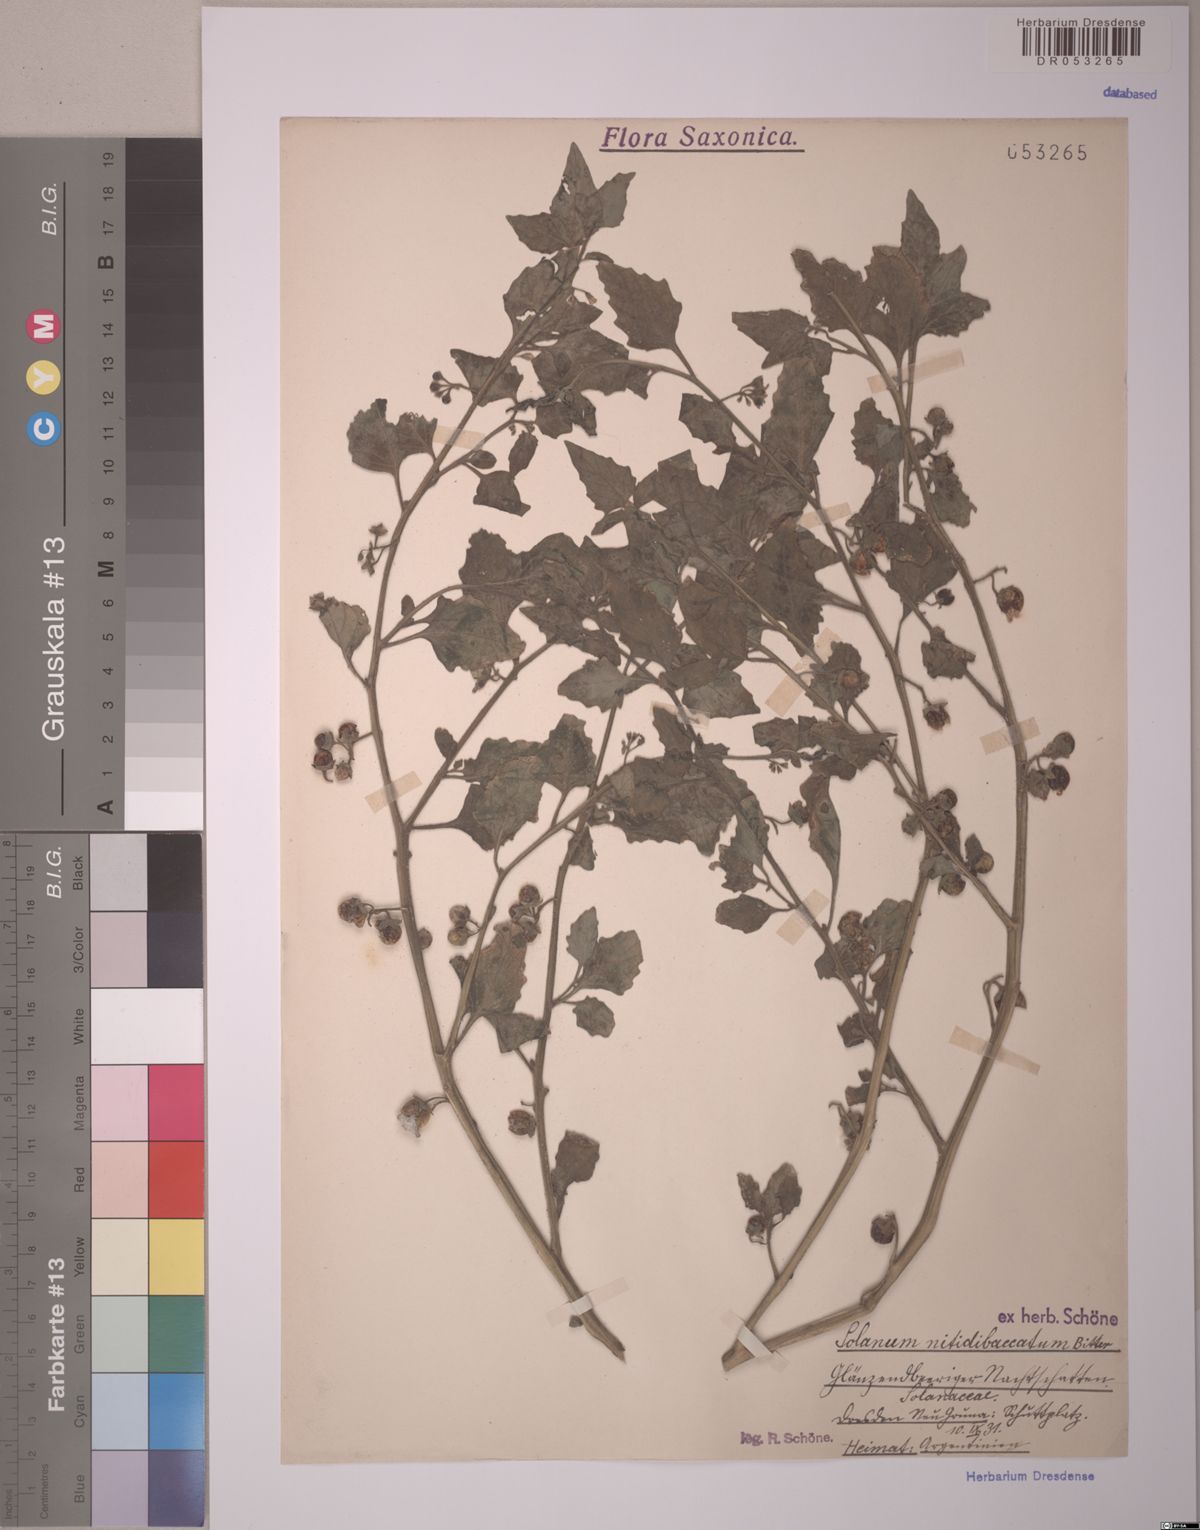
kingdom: Plantae
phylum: Tracheophyta
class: Magnoliopsida
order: Solanales
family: Solanaceae
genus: Solanum
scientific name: Solanum nitidibaccatum
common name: Hairy nightshade
